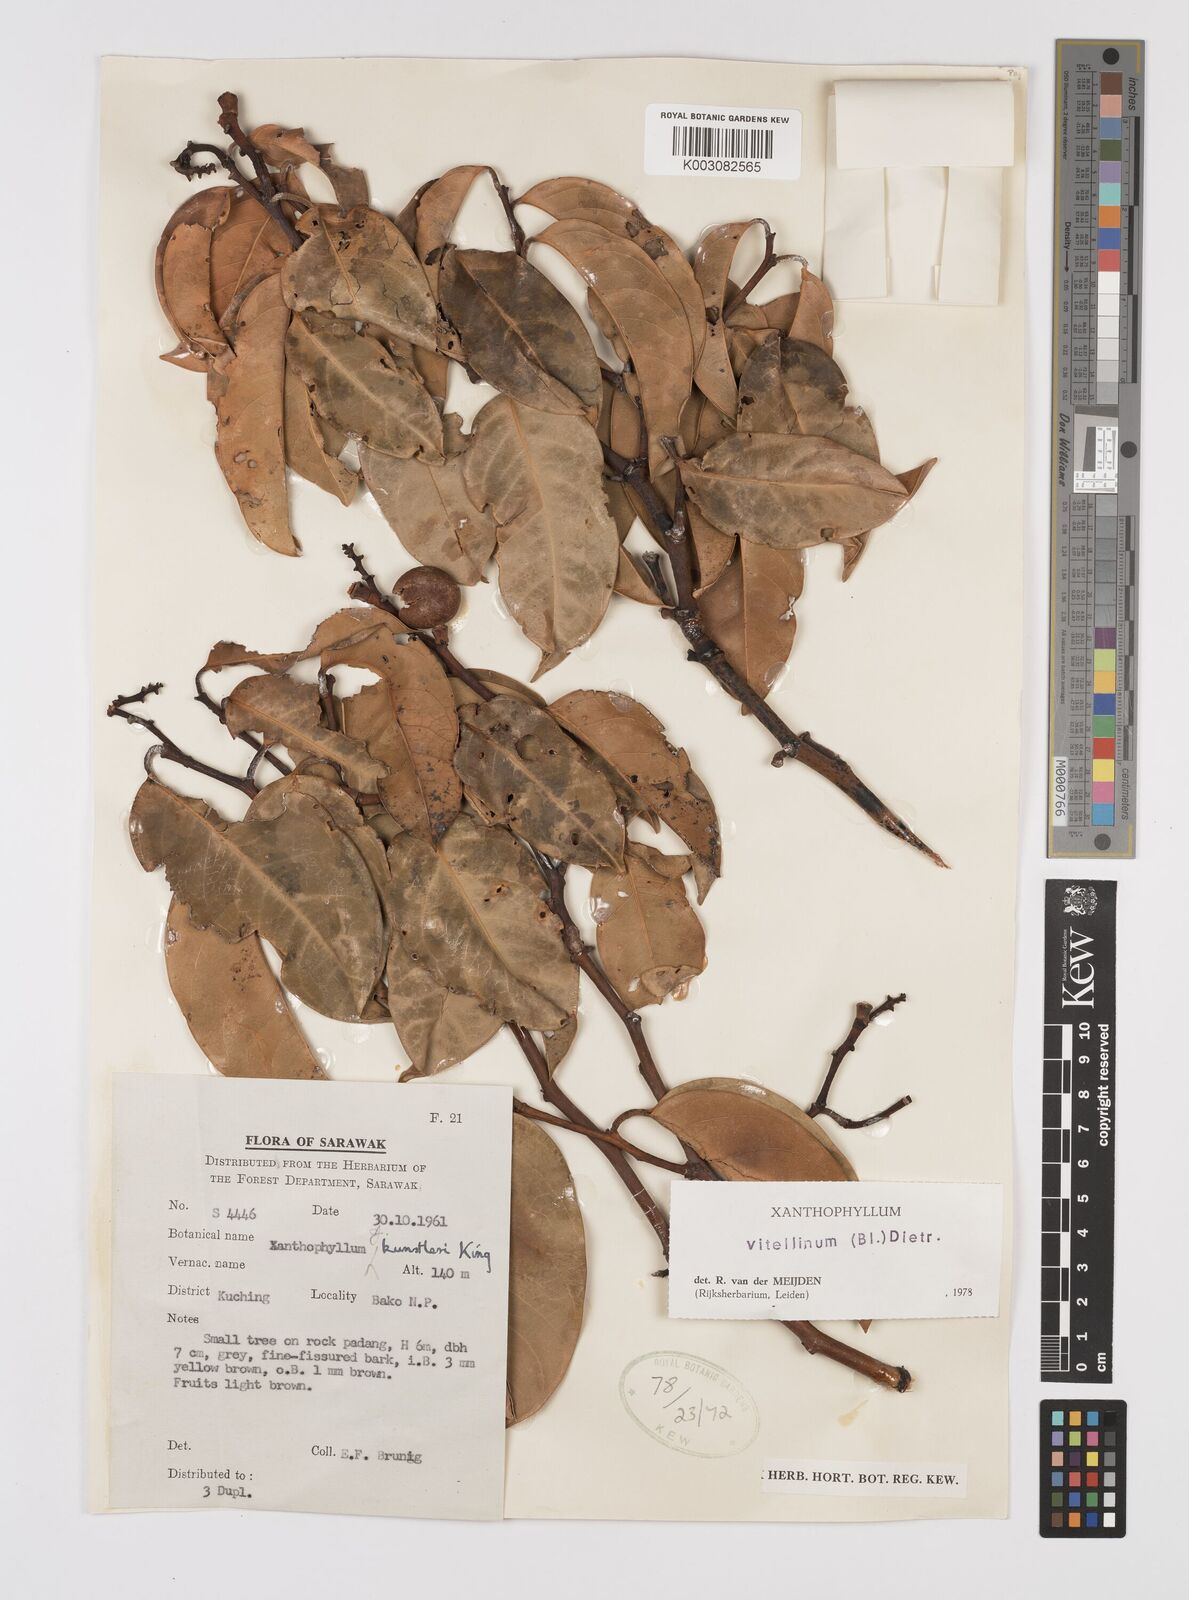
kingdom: Plantae
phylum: Tracheophyta
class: Magnoliopsida
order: Fabales
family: Polygalaceae
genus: Xanthophyllum
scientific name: Xanthophyllum vitellinum
